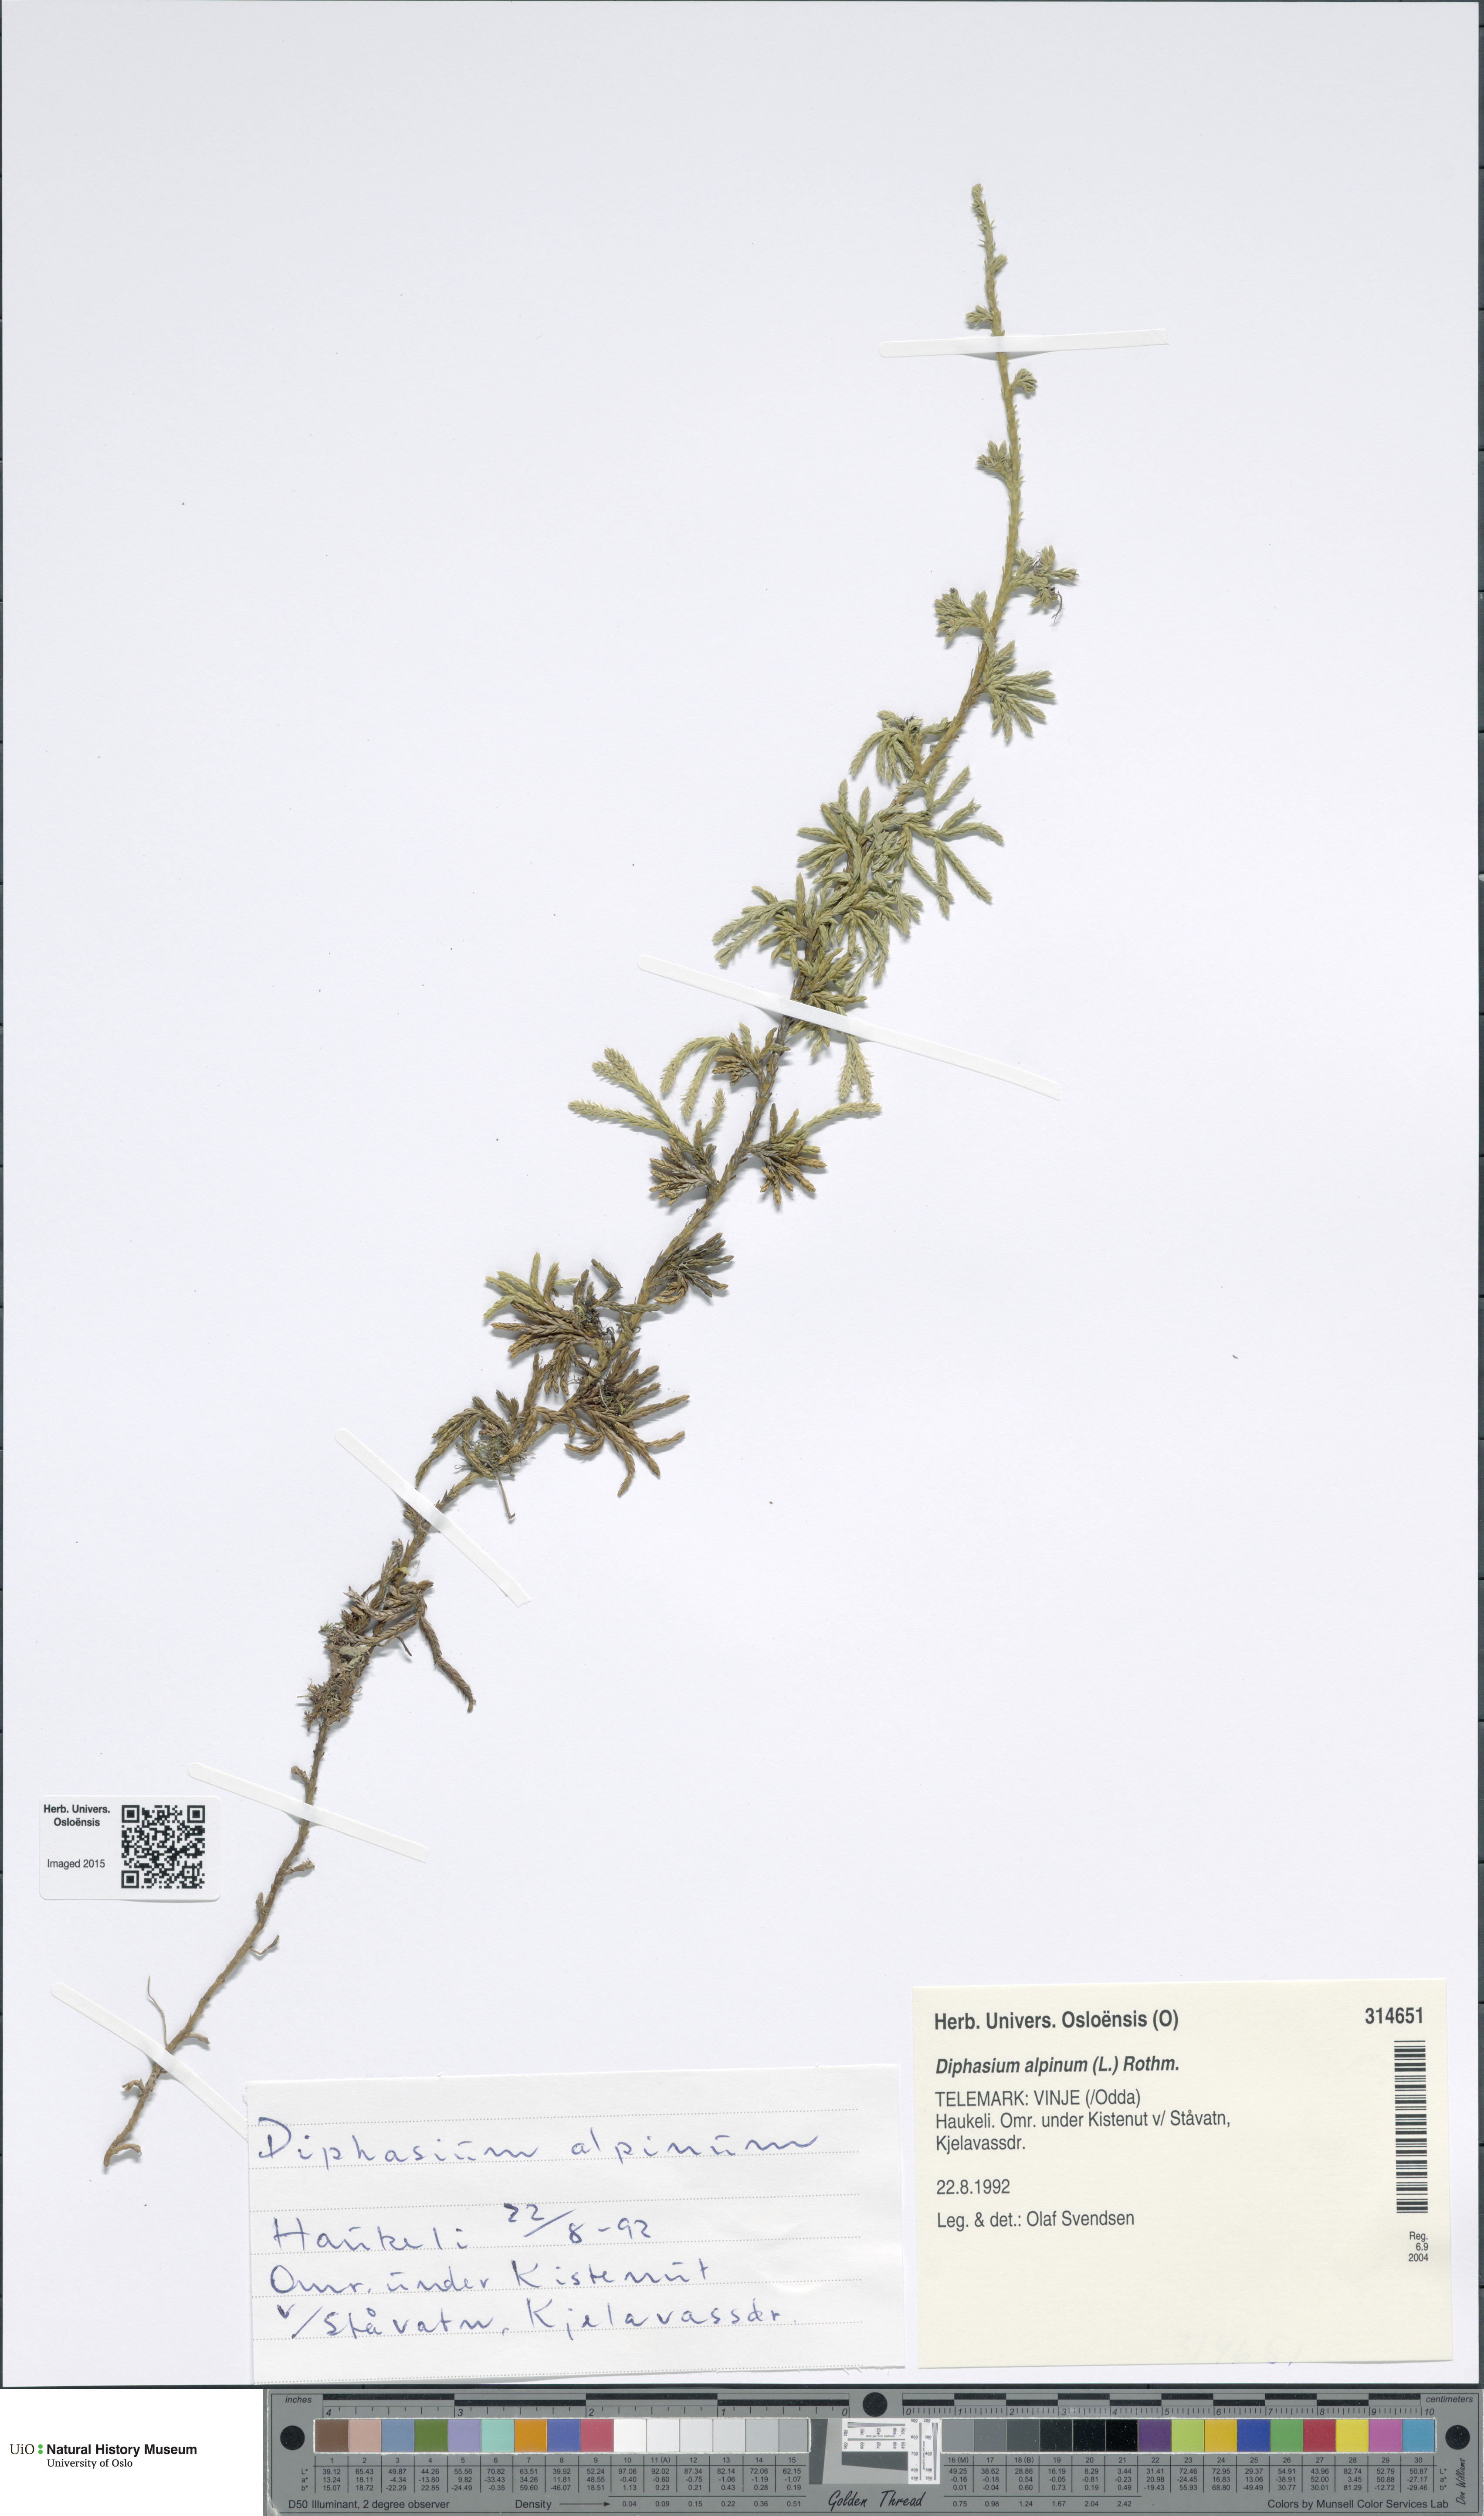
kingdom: Plantae
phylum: Tracheophyta
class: Lycopodiopsida
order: Lycopodiales
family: Lycopodiaceae
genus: Diphasiastrum
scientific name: Diphasiastrum alpinum
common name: Alpine clubmoss
